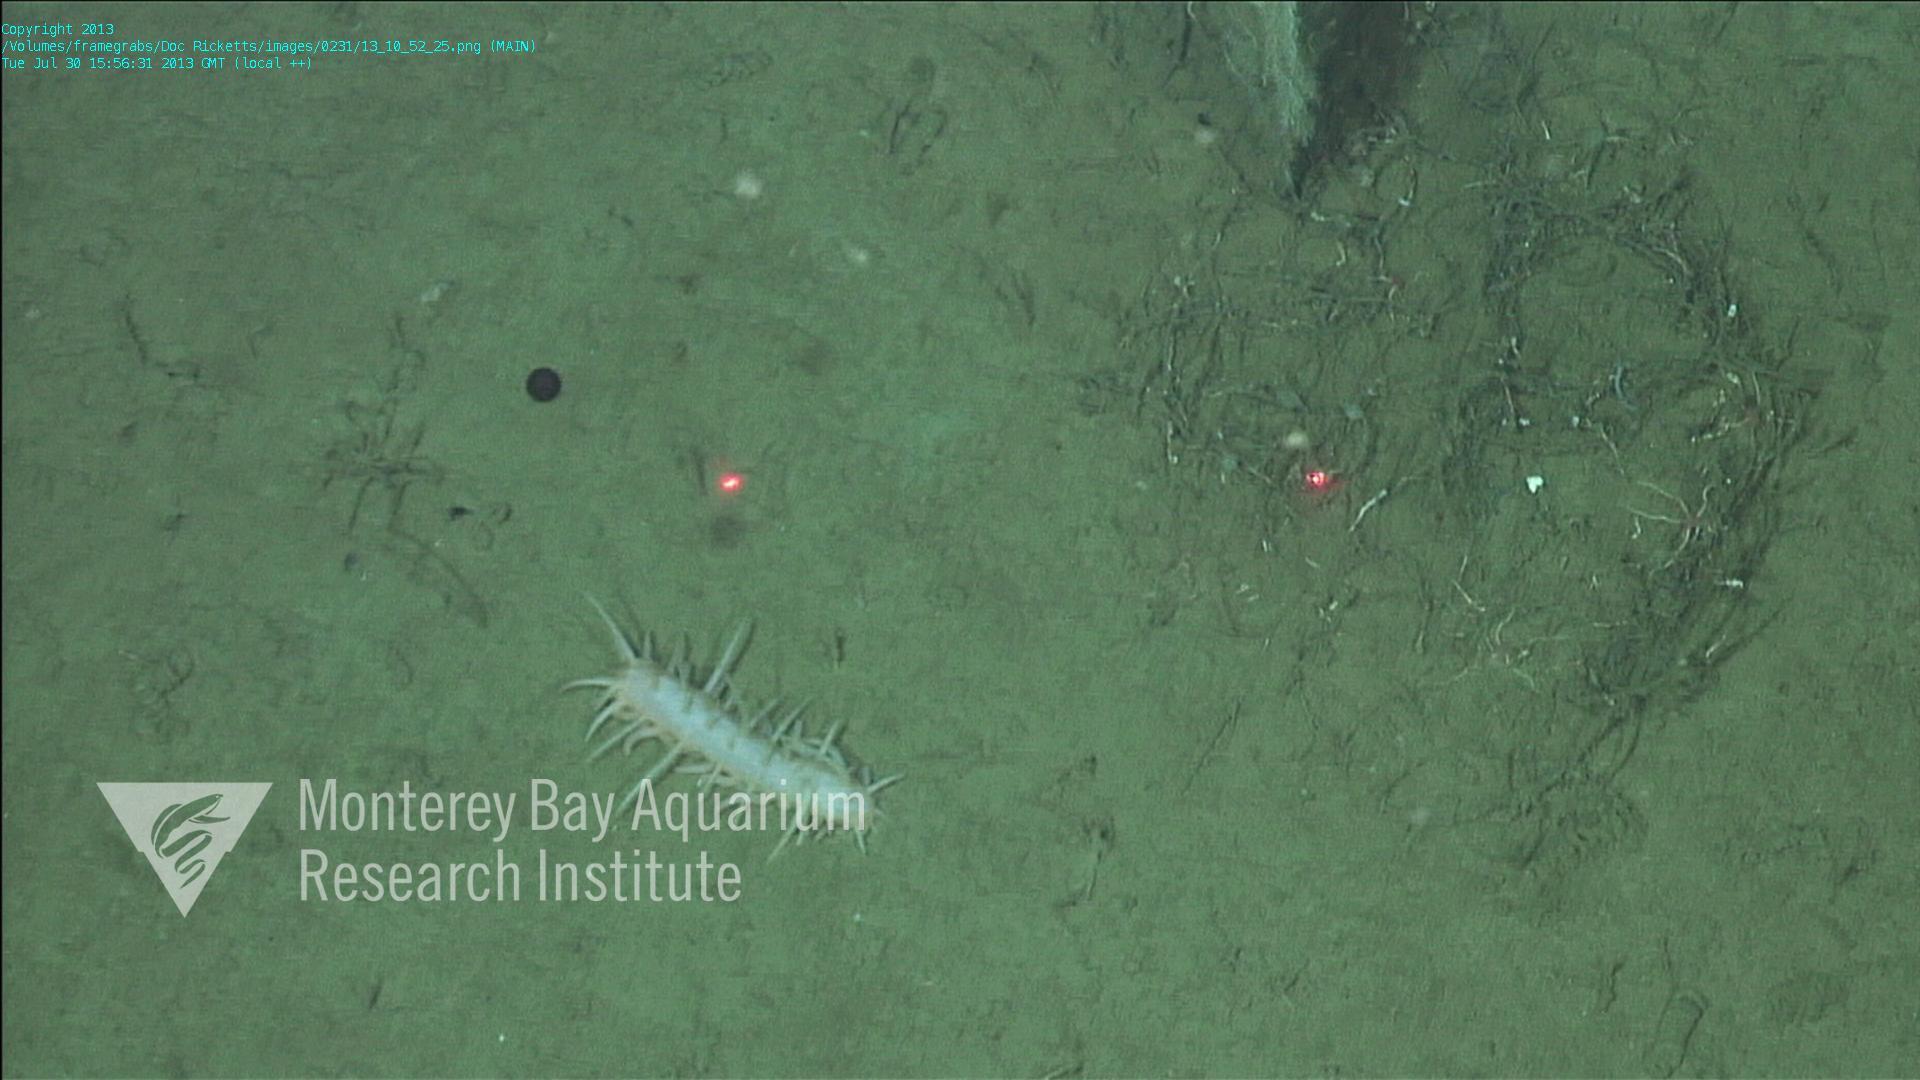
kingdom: Animalia
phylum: Porifera
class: Demospongiae
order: Poecilosclerida
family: Cladorhizidae
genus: Cladorhiza
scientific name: Cladorhiza
